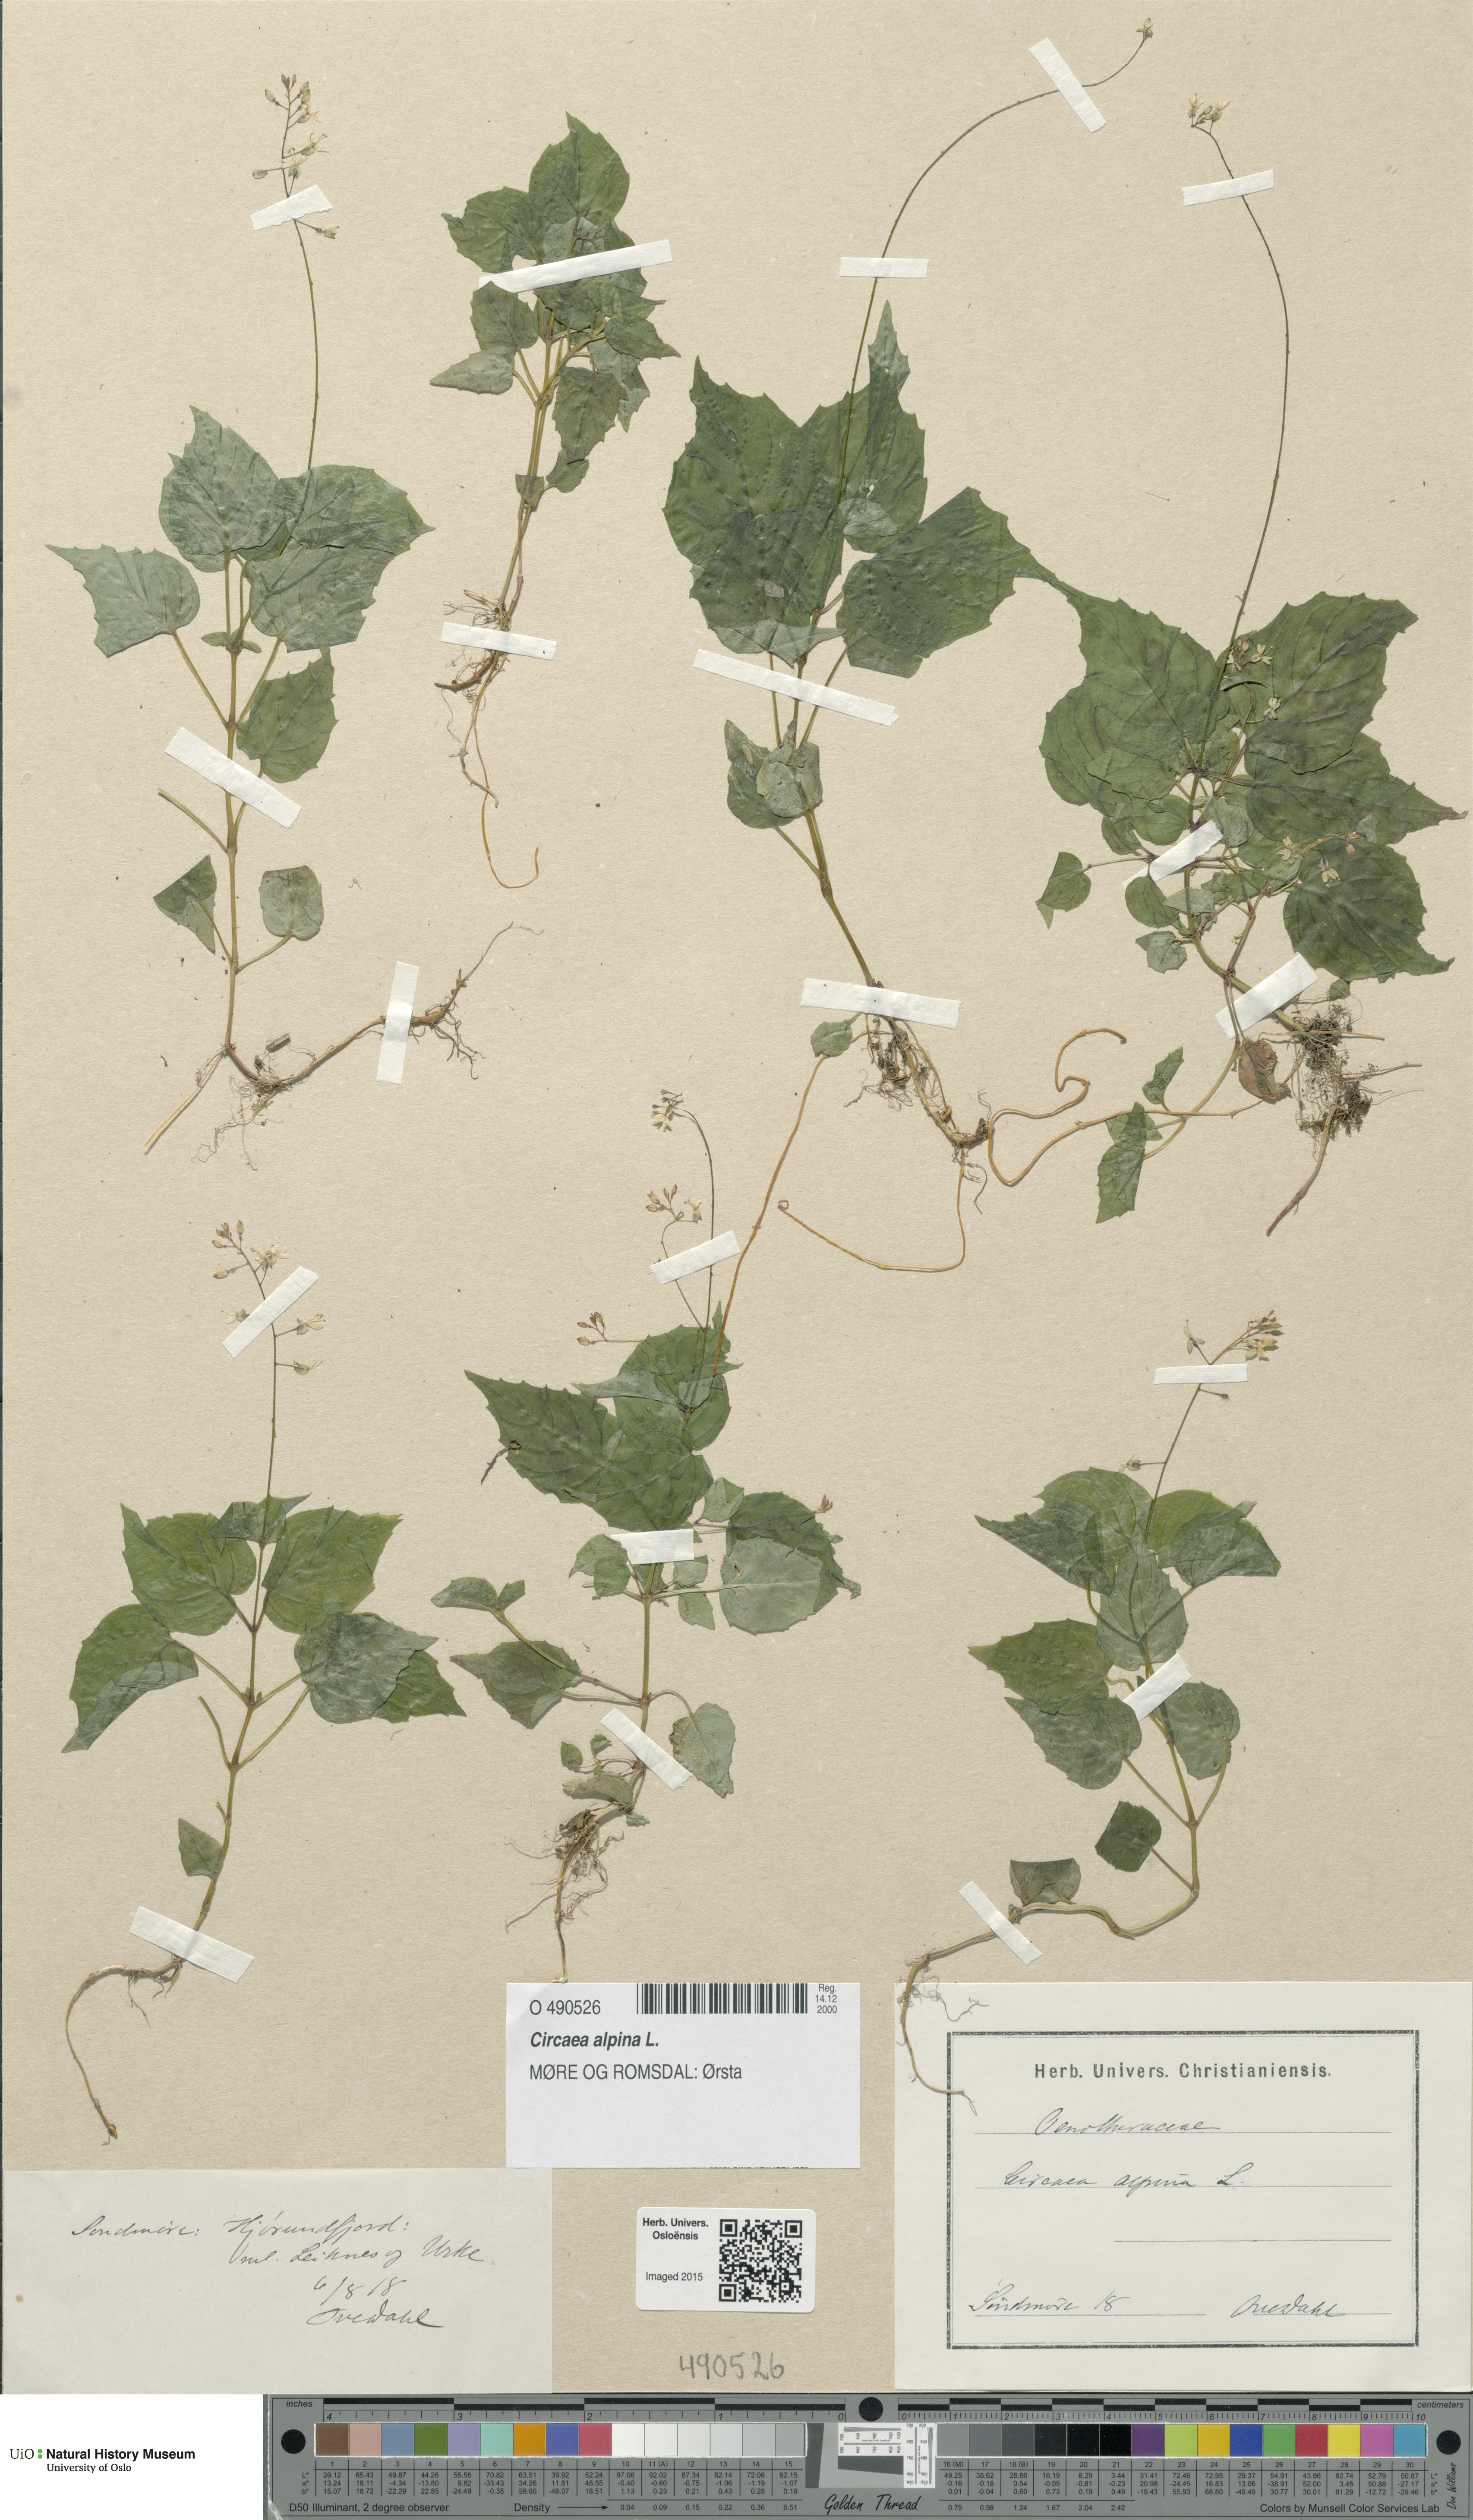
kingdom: Plantae
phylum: Tracheophyta
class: Magnoliopsida
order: Myrtales
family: Onagraceae
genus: Circaea
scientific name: Circaea alpina
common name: Alpine enchanter's-nightshade
